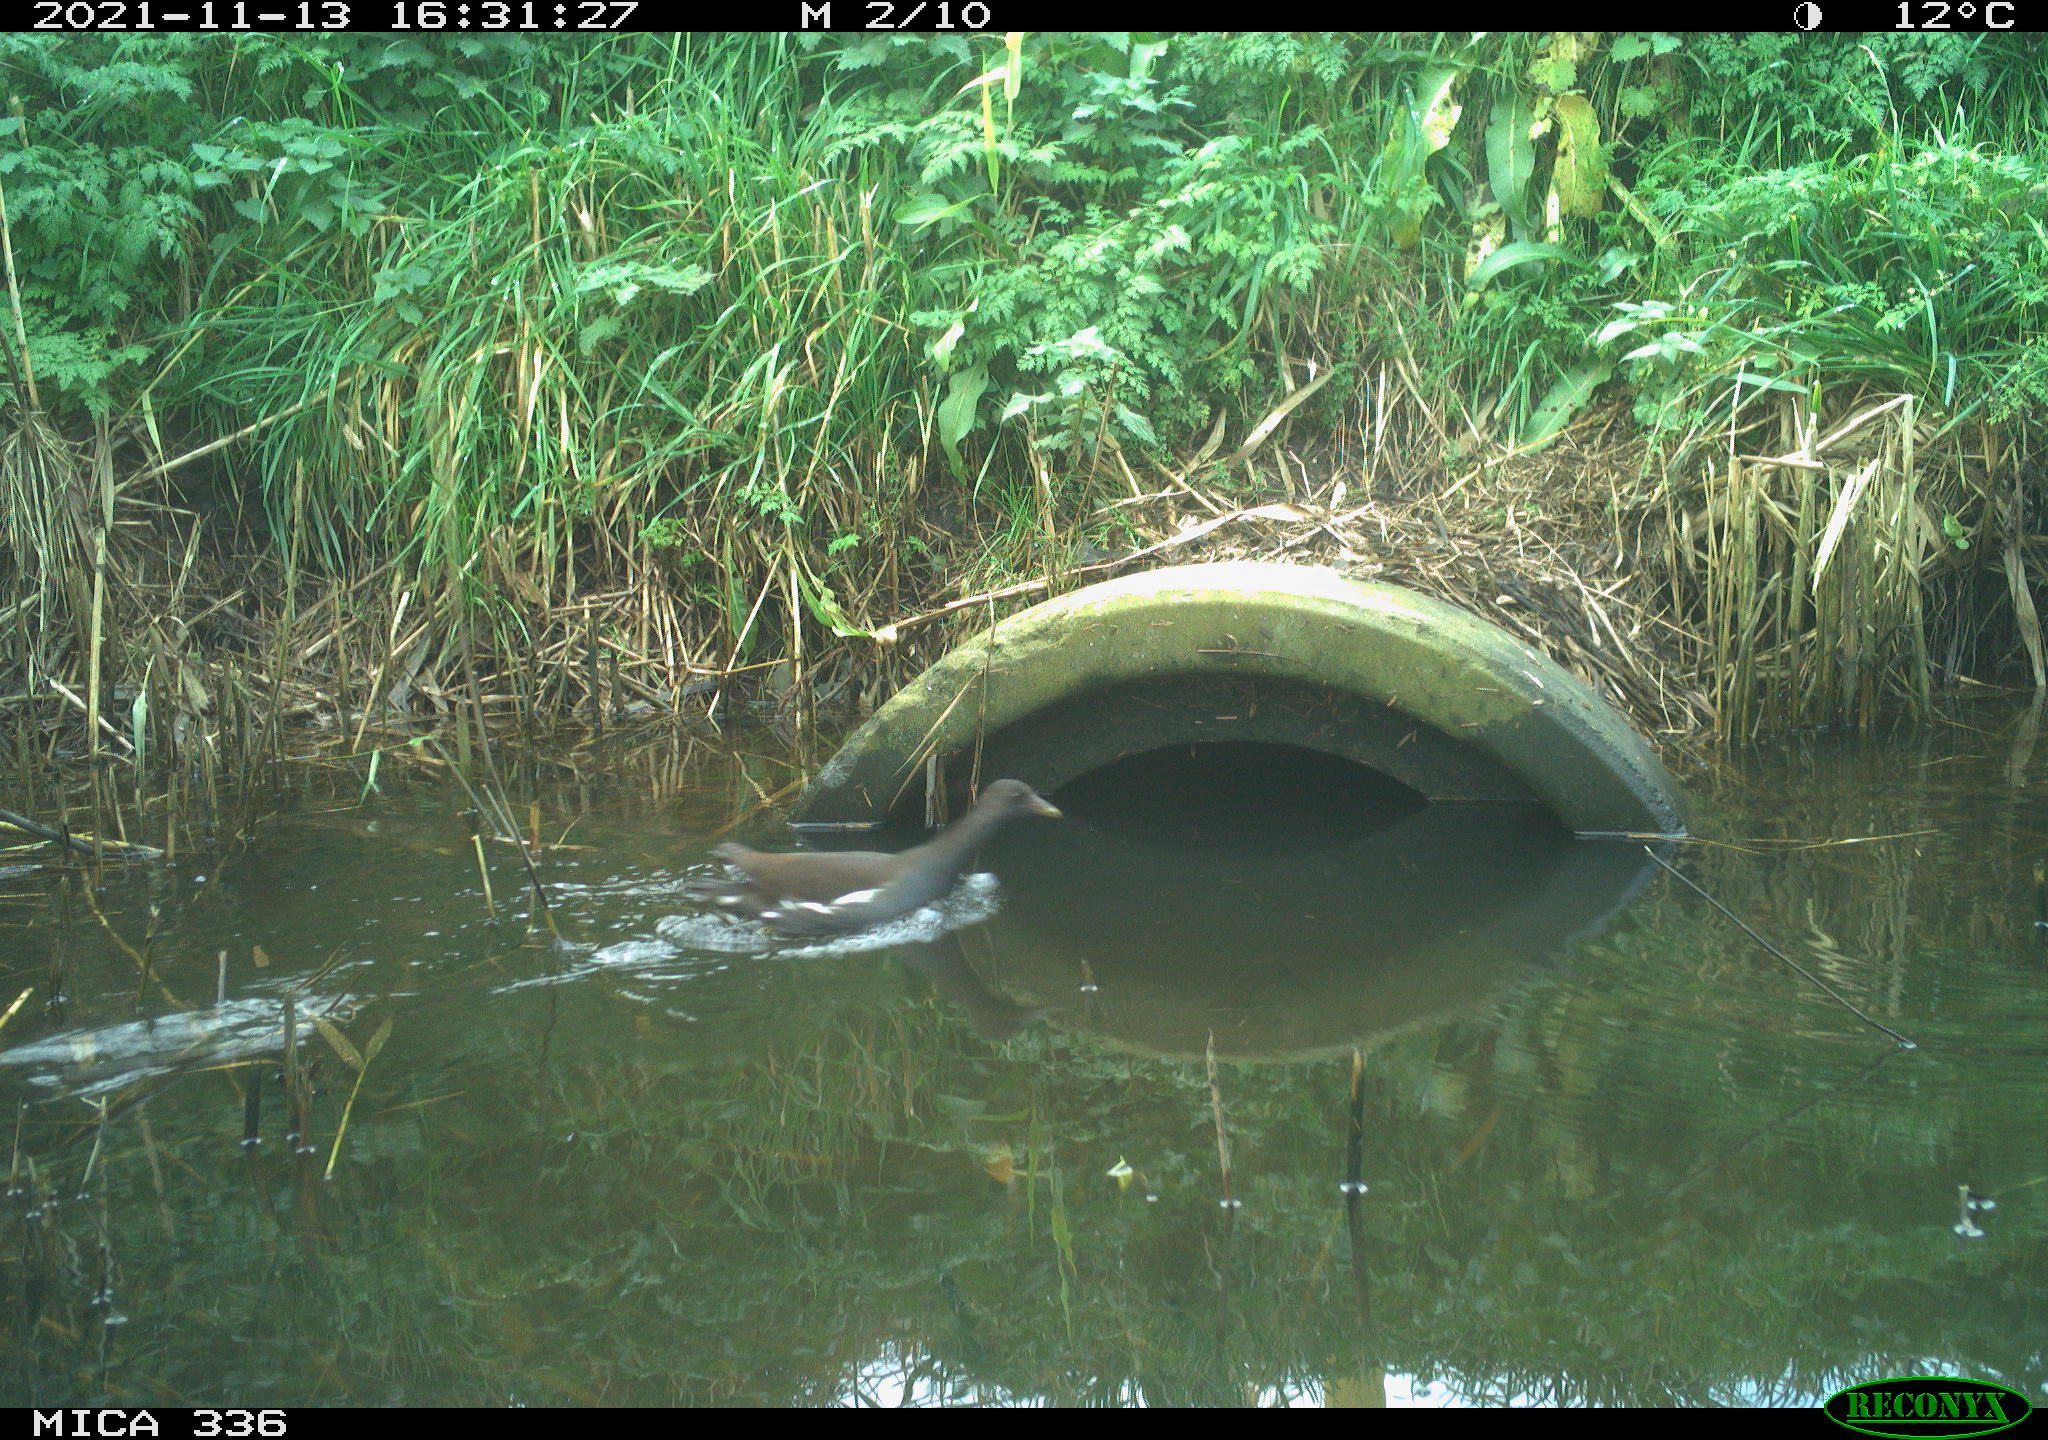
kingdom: Animalia
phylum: Chordata
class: Aves
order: Gruiformes
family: Rallidae
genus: Gallinula
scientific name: Gallinula chloropus
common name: Common moorhen
